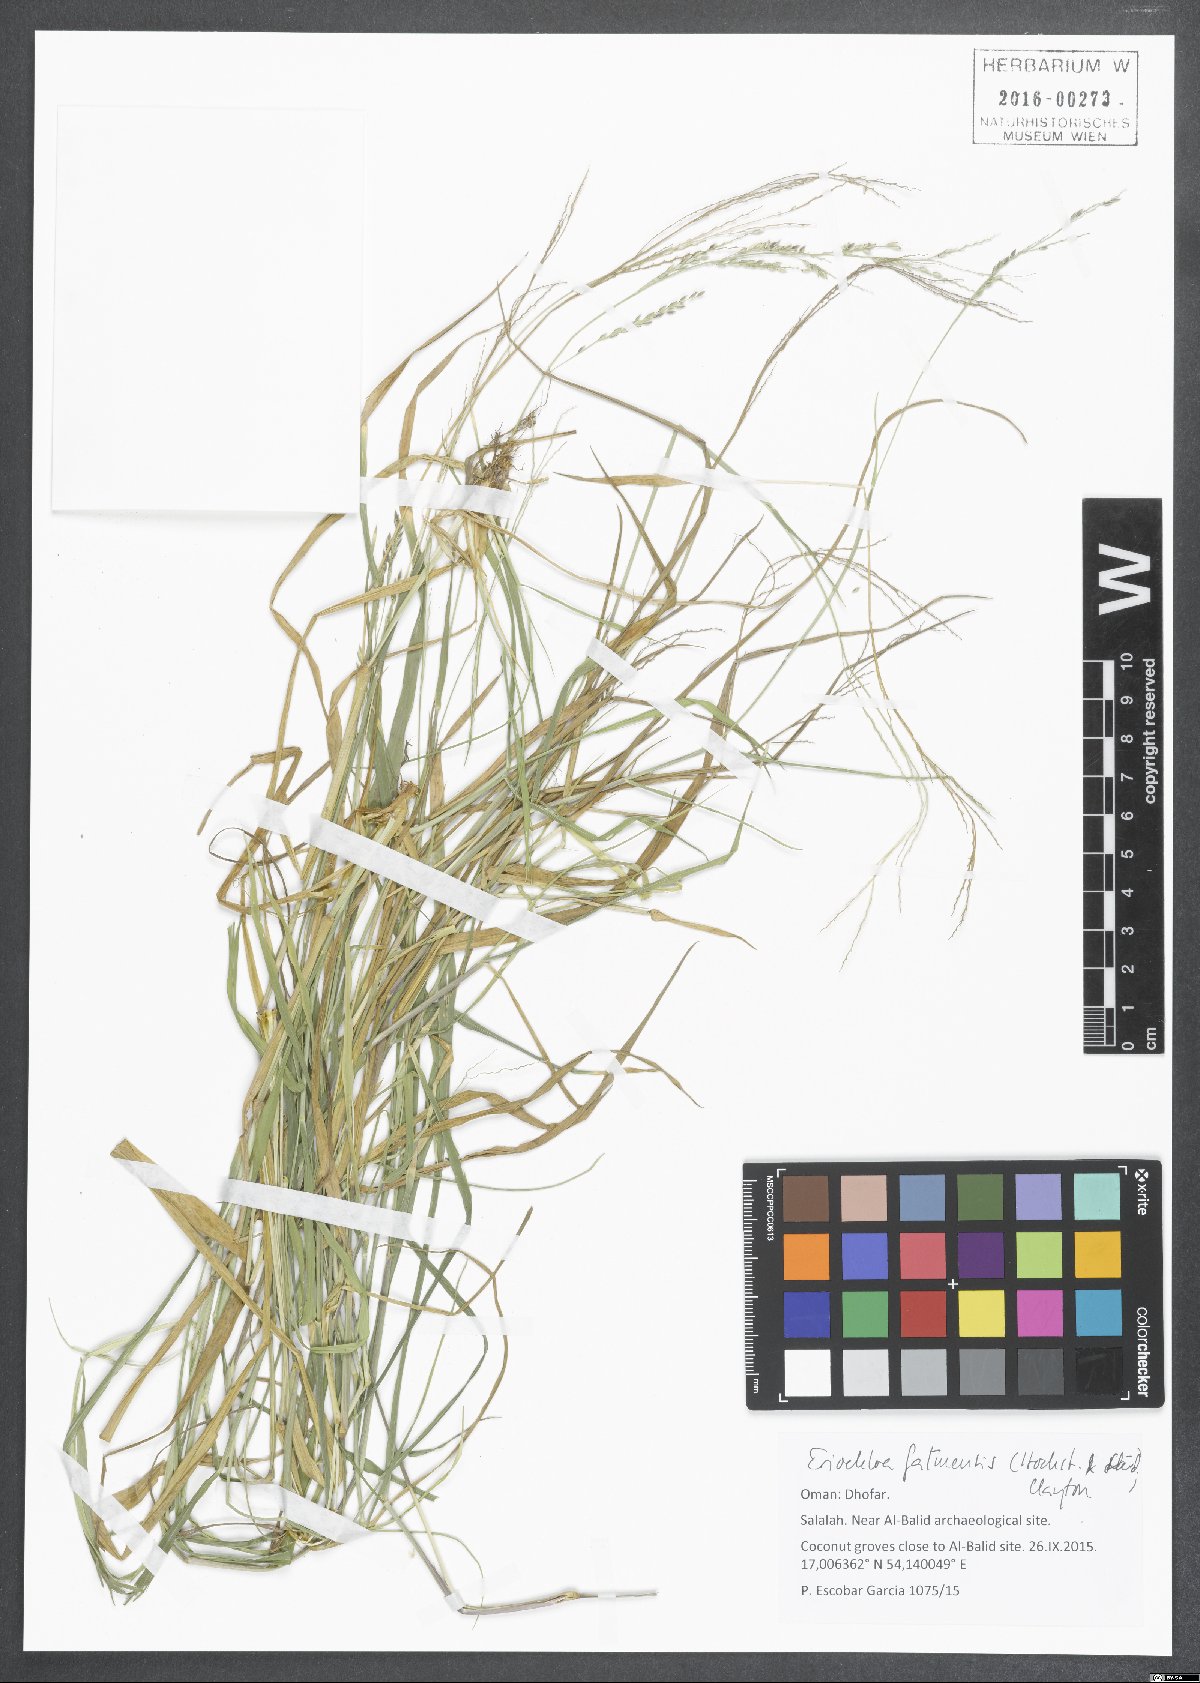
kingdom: Plantae
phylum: Tracheophyta
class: Liliopsida
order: Poales
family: Poaceae
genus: Eriochloa
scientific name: Eriochloa barbatus
